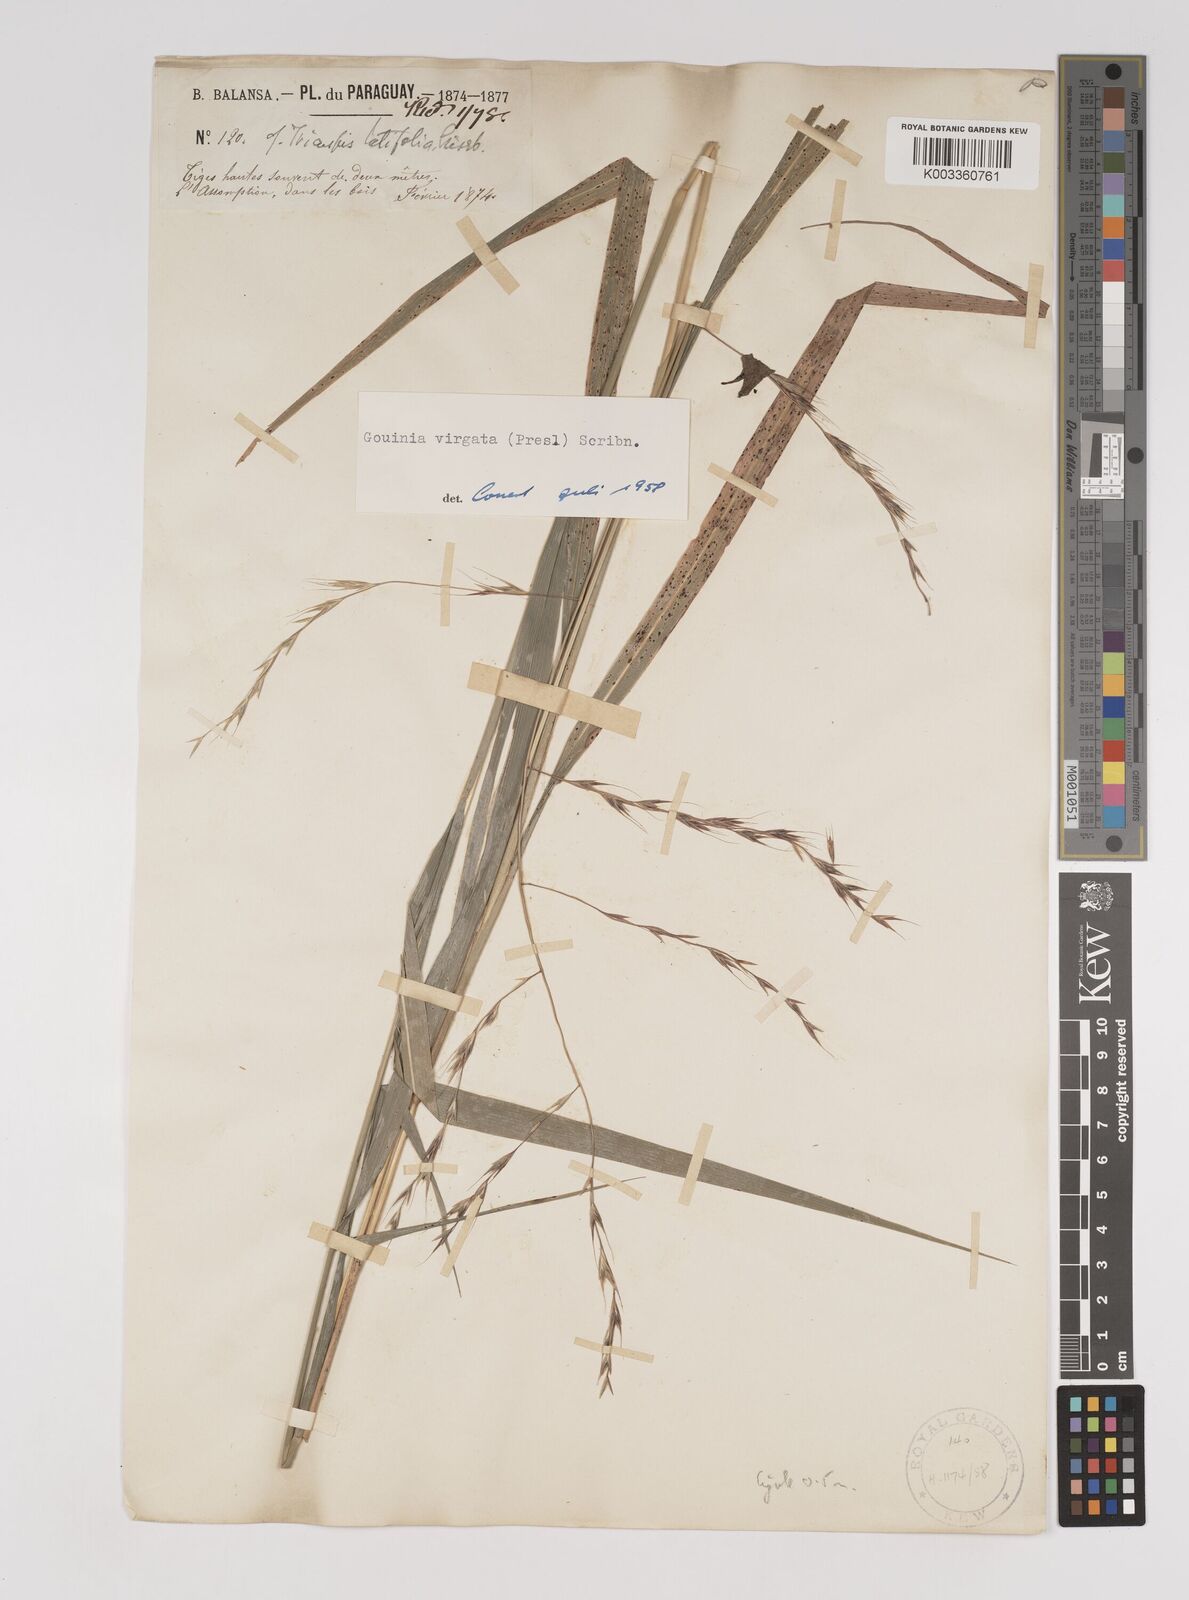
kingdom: Plantae
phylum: Tracheophyta
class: Liliopsida
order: Poales
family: Poaceae
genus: Gouinia
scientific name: Gouinia brasiliensis
